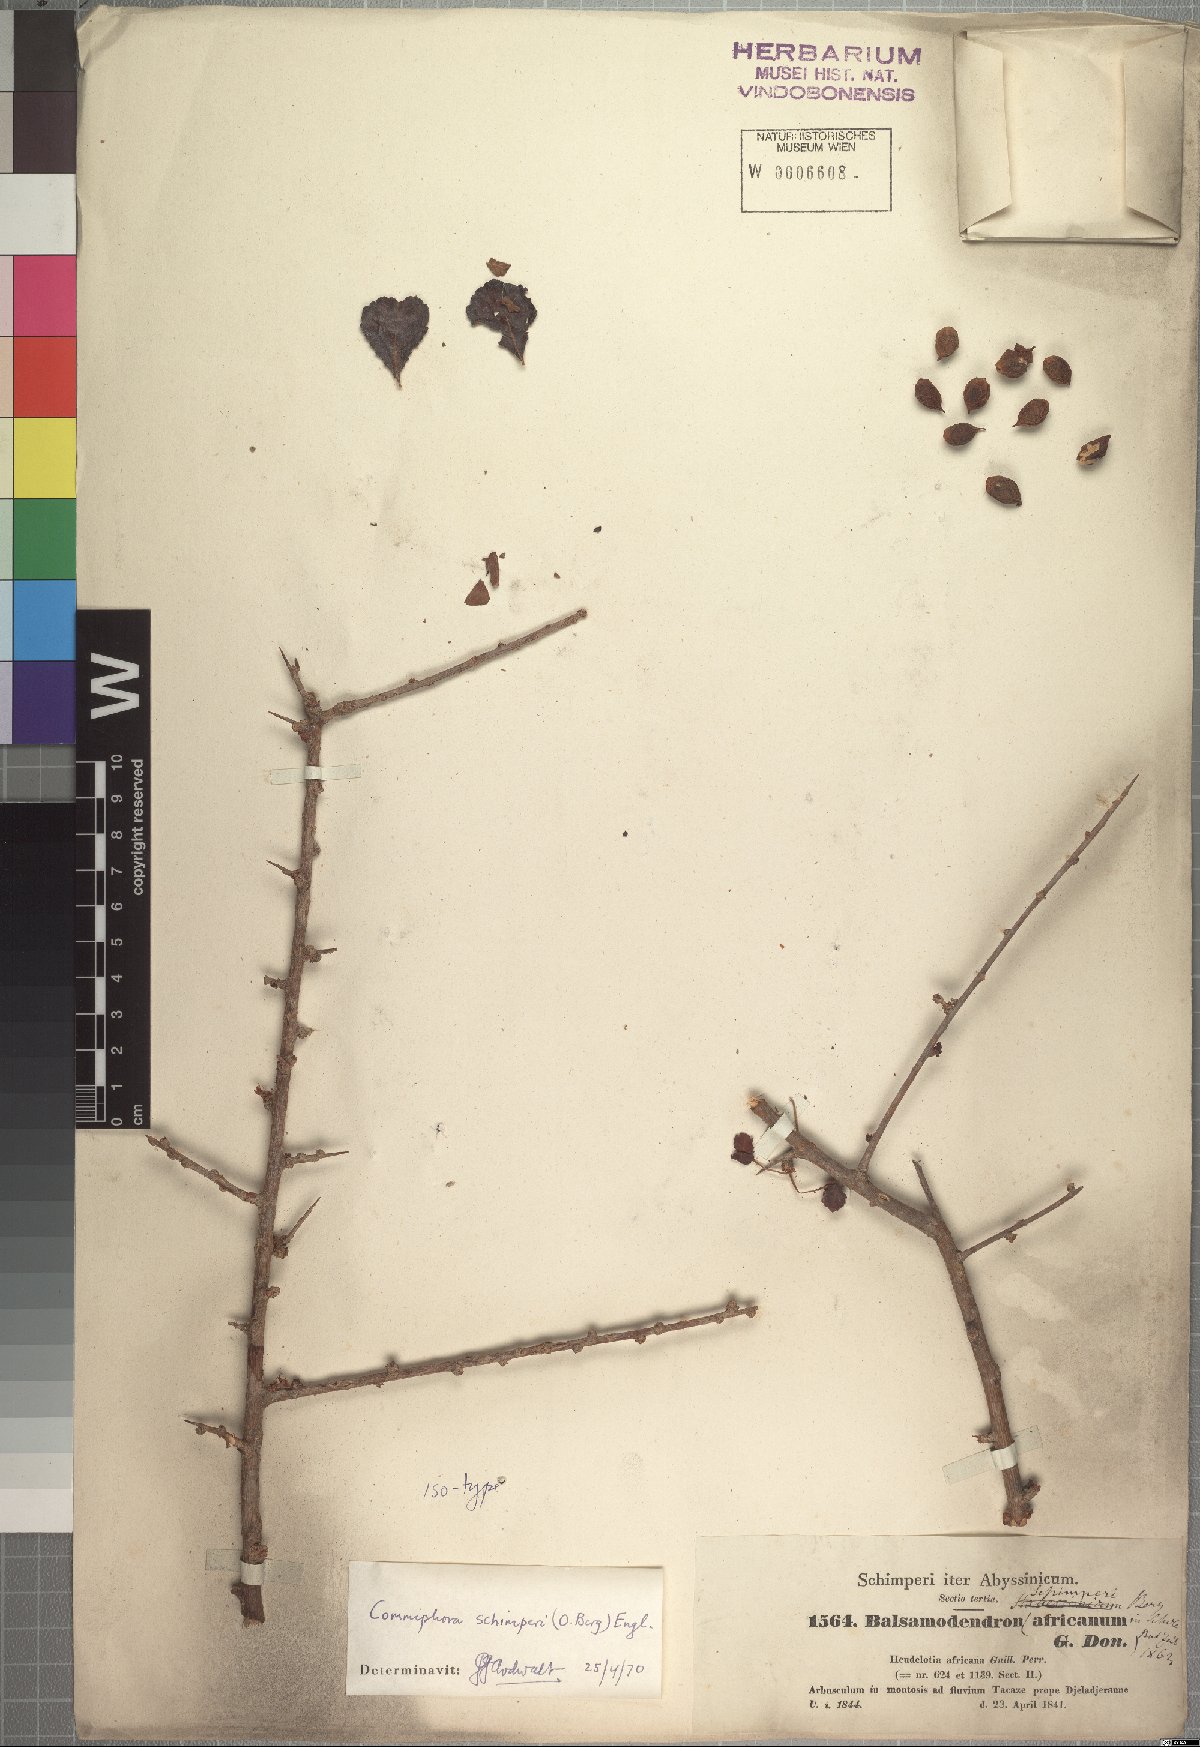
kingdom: Plantae
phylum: Tracheophyta
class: Magnoliopsida
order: Sapindales
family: Burseraceae
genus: Commiphora
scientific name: Commiphora schimperi
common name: Glossy-leaved corkwood
